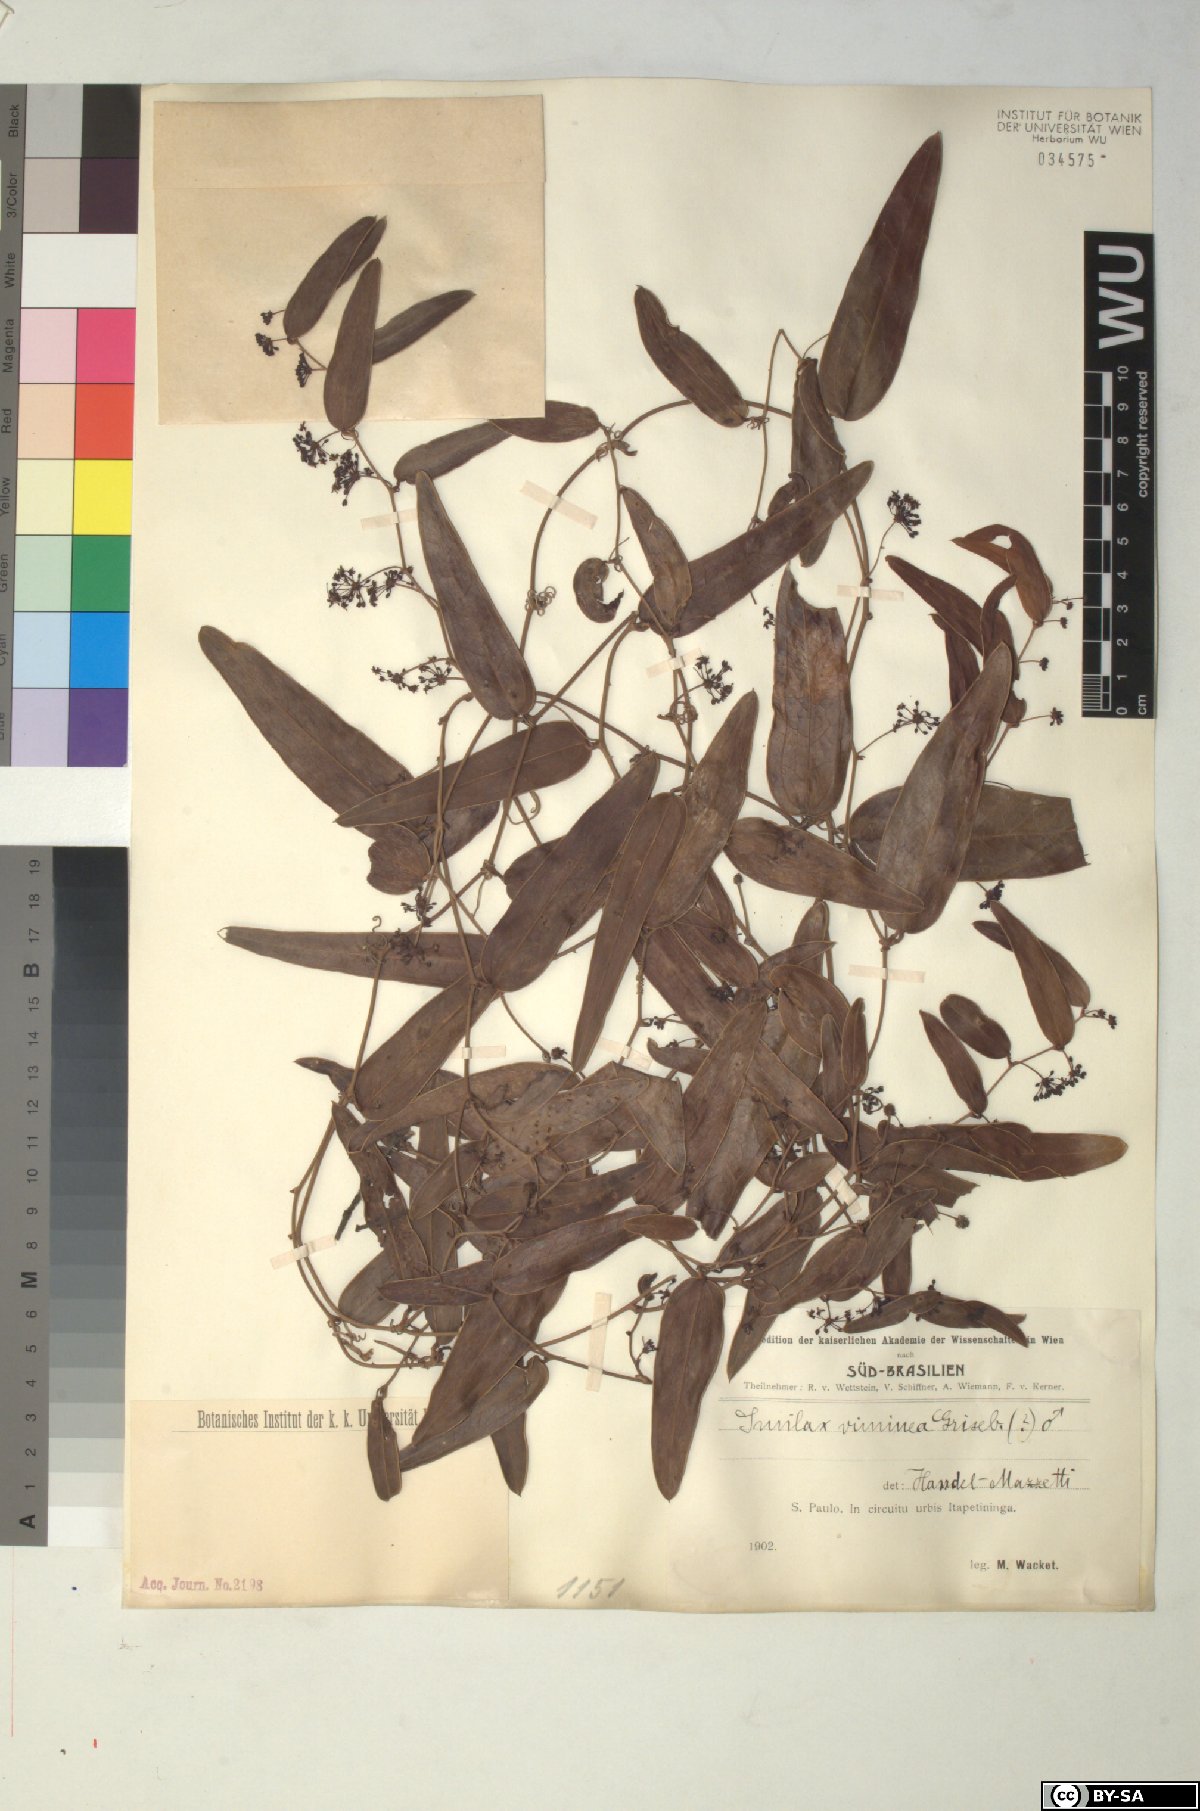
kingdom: Plantae
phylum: Tracheophyta
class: Liliopsida
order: Liliales
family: Smilacaceae
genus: Smilax
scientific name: Smilax campestris
